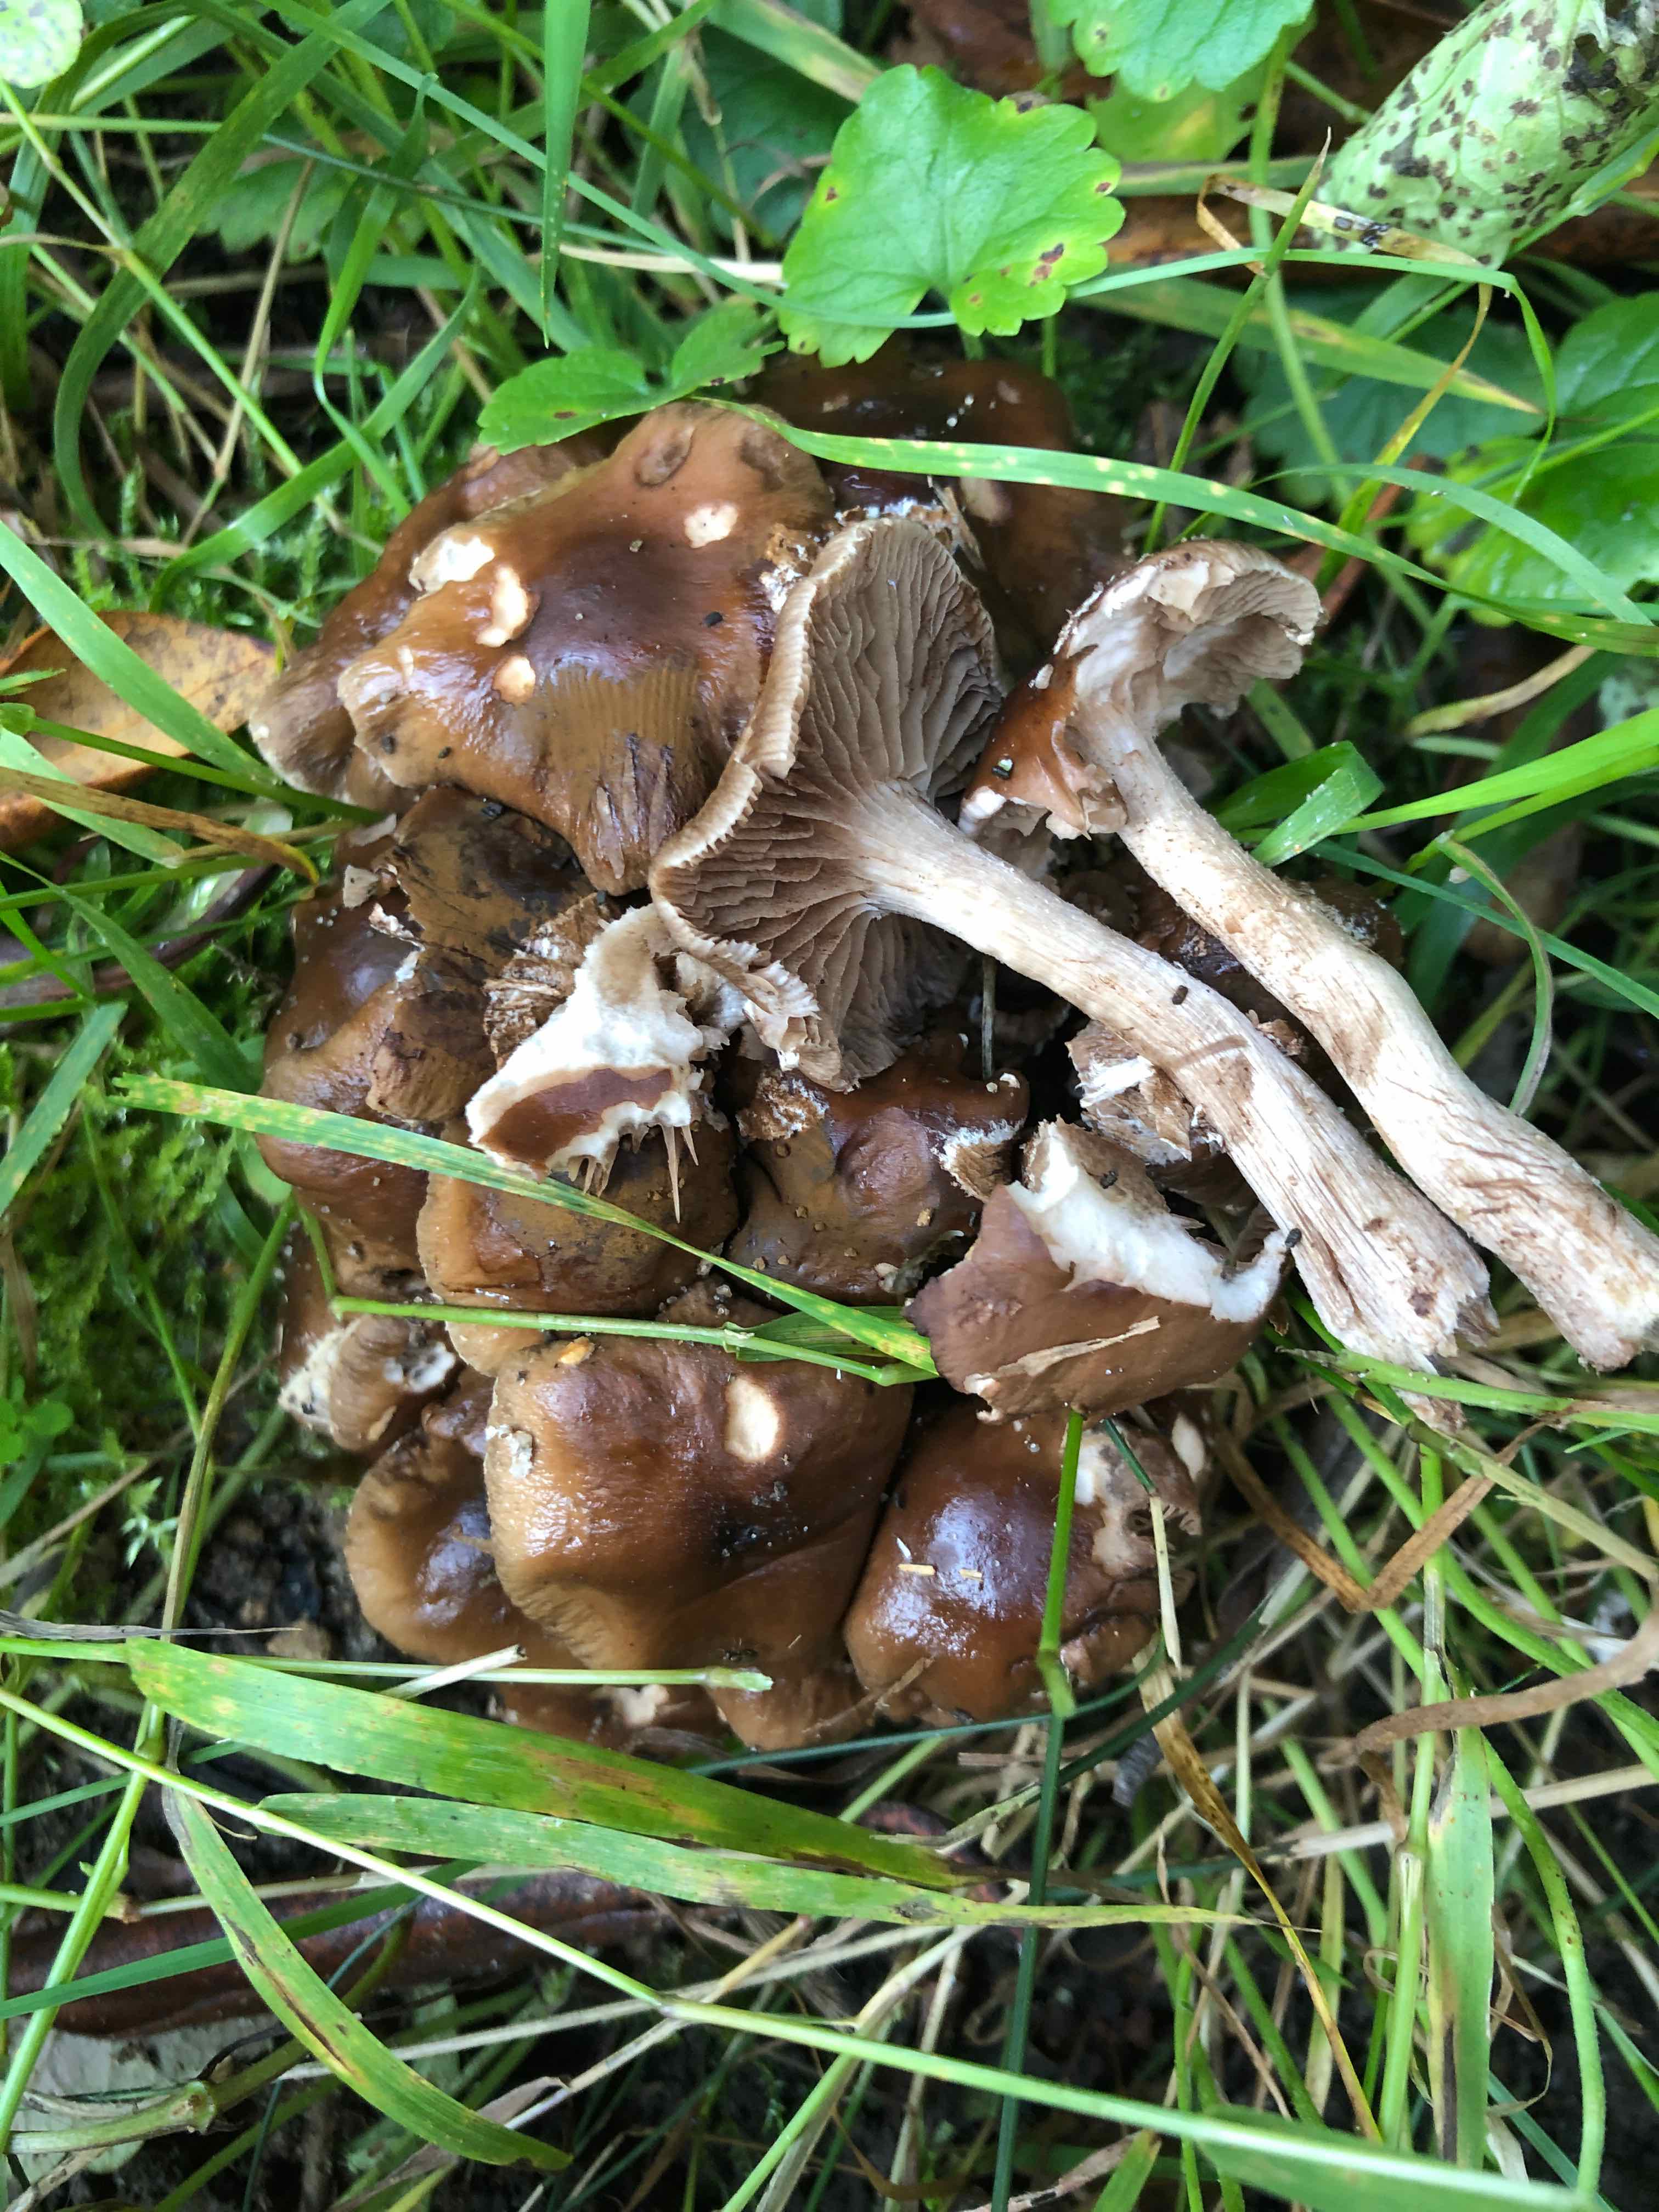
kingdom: Fungi
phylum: Basidiomycota
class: Agaricomycetes
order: Agaricales
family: Tubariaceae
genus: Cyclocybe
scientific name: Cyclocybe erebia
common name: mørk agerhat
